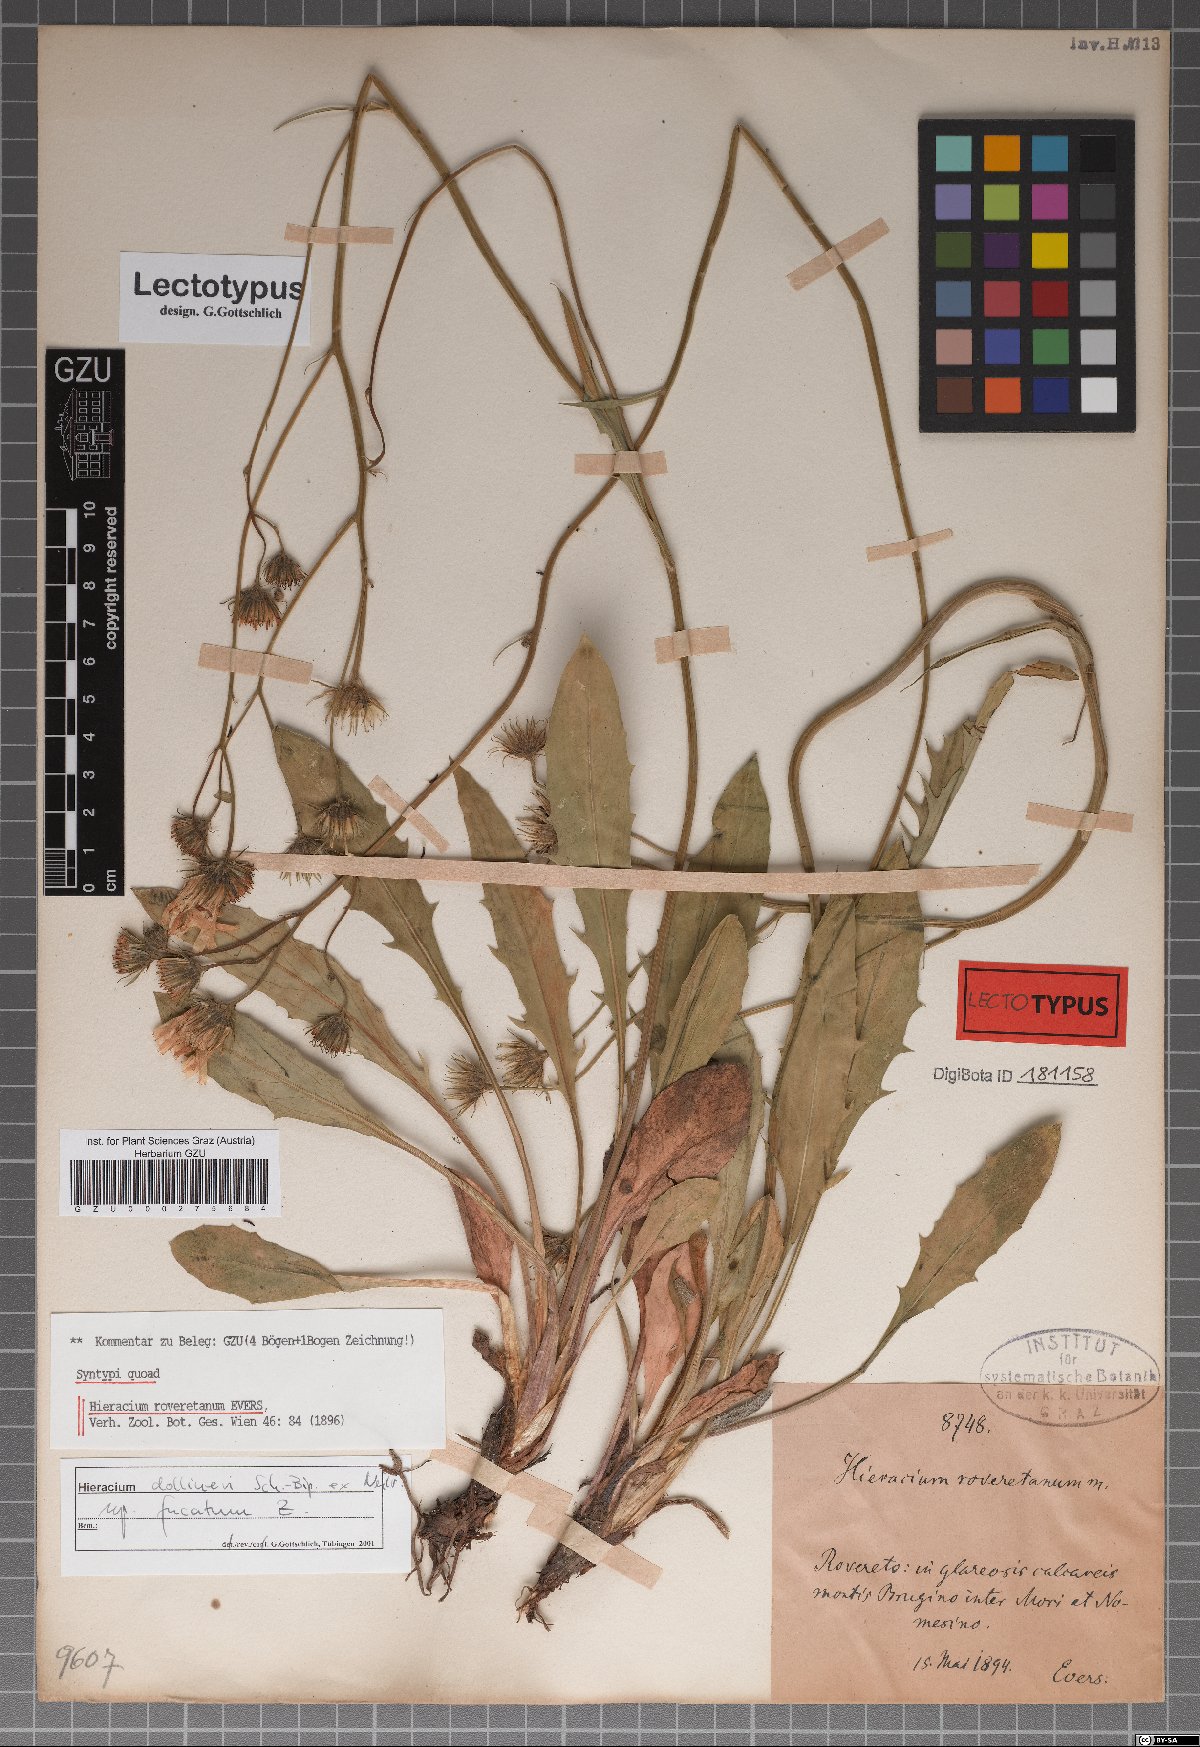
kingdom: Plantae
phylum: Tracheophyta
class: Magnoliopsida
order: Asterales
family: Asteraceae
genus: Hieracium
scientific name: Hieracium dollineri
